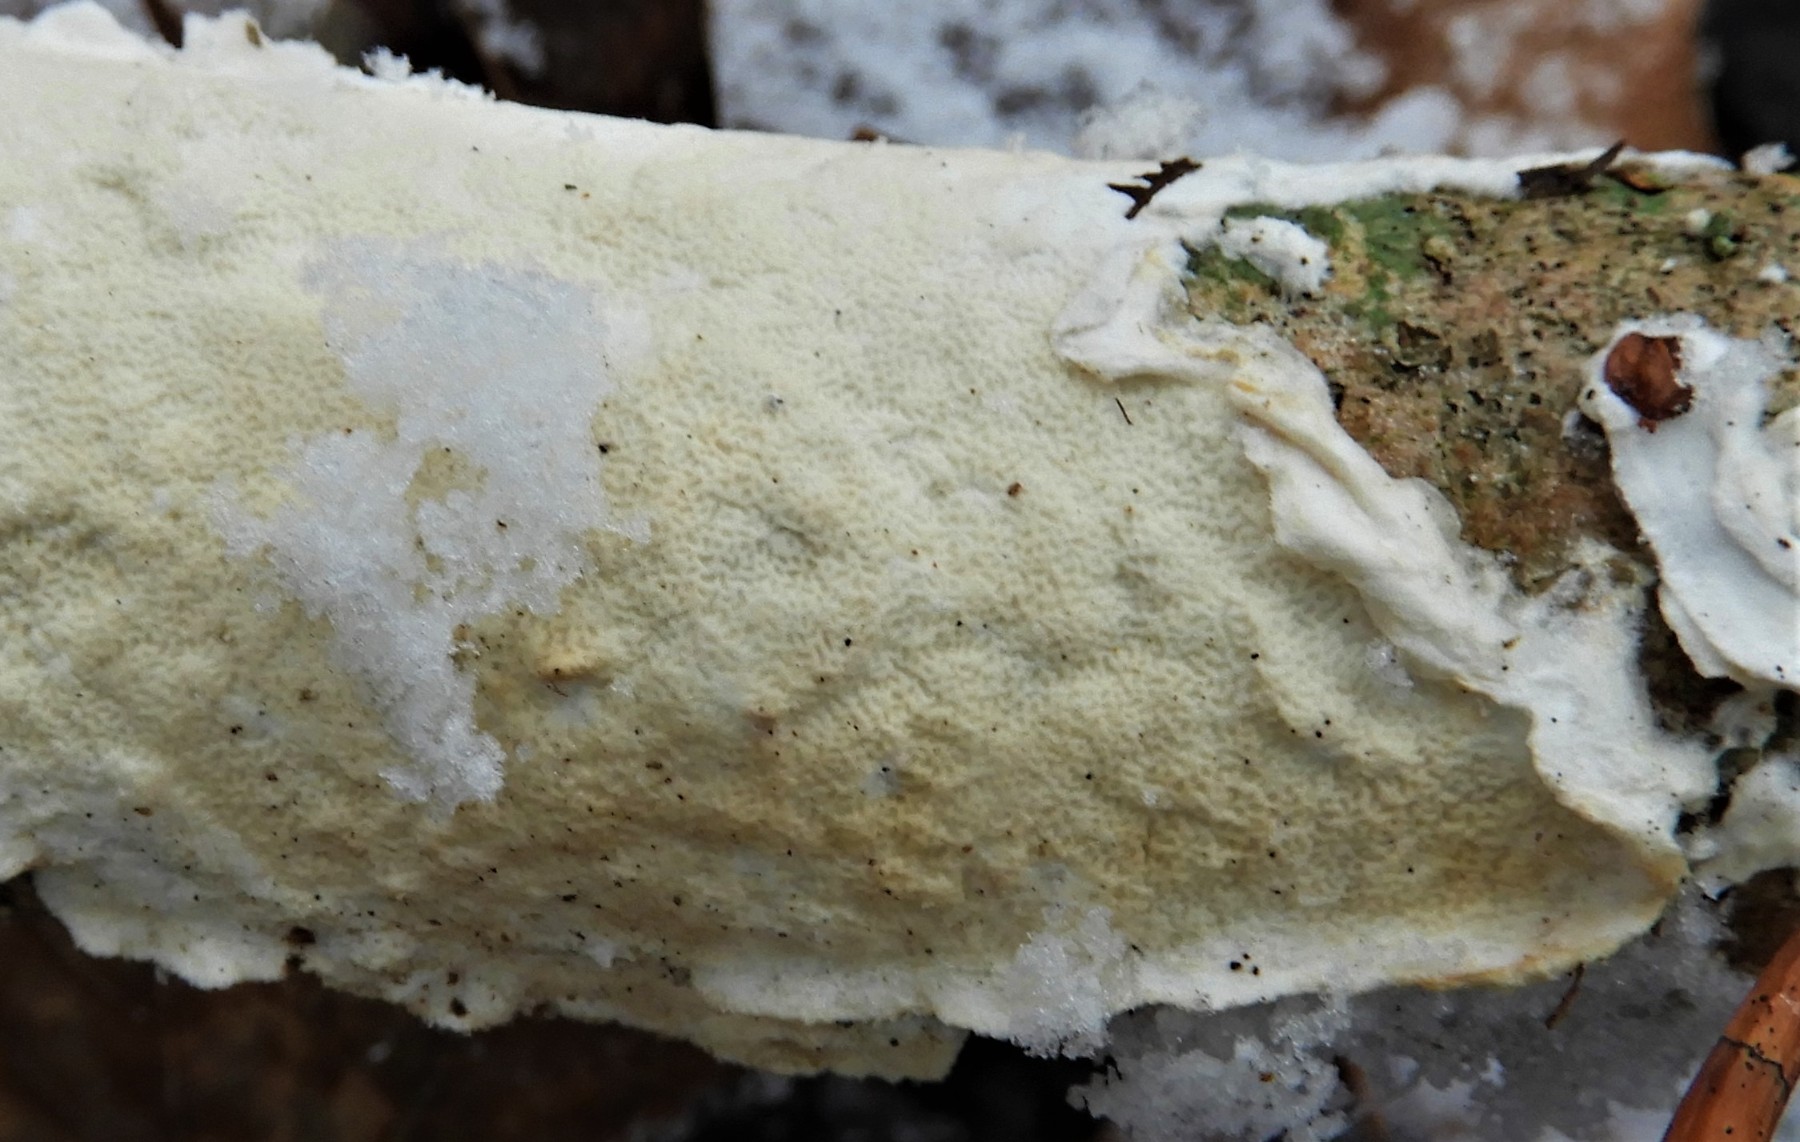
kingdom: Fungi
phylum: Basidiomycota
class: Agaricomycetes
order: Polyporales
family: Irpicaceae
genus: Byssomerulius
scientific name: Byssomerulius corium
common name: læder-åresvamp
